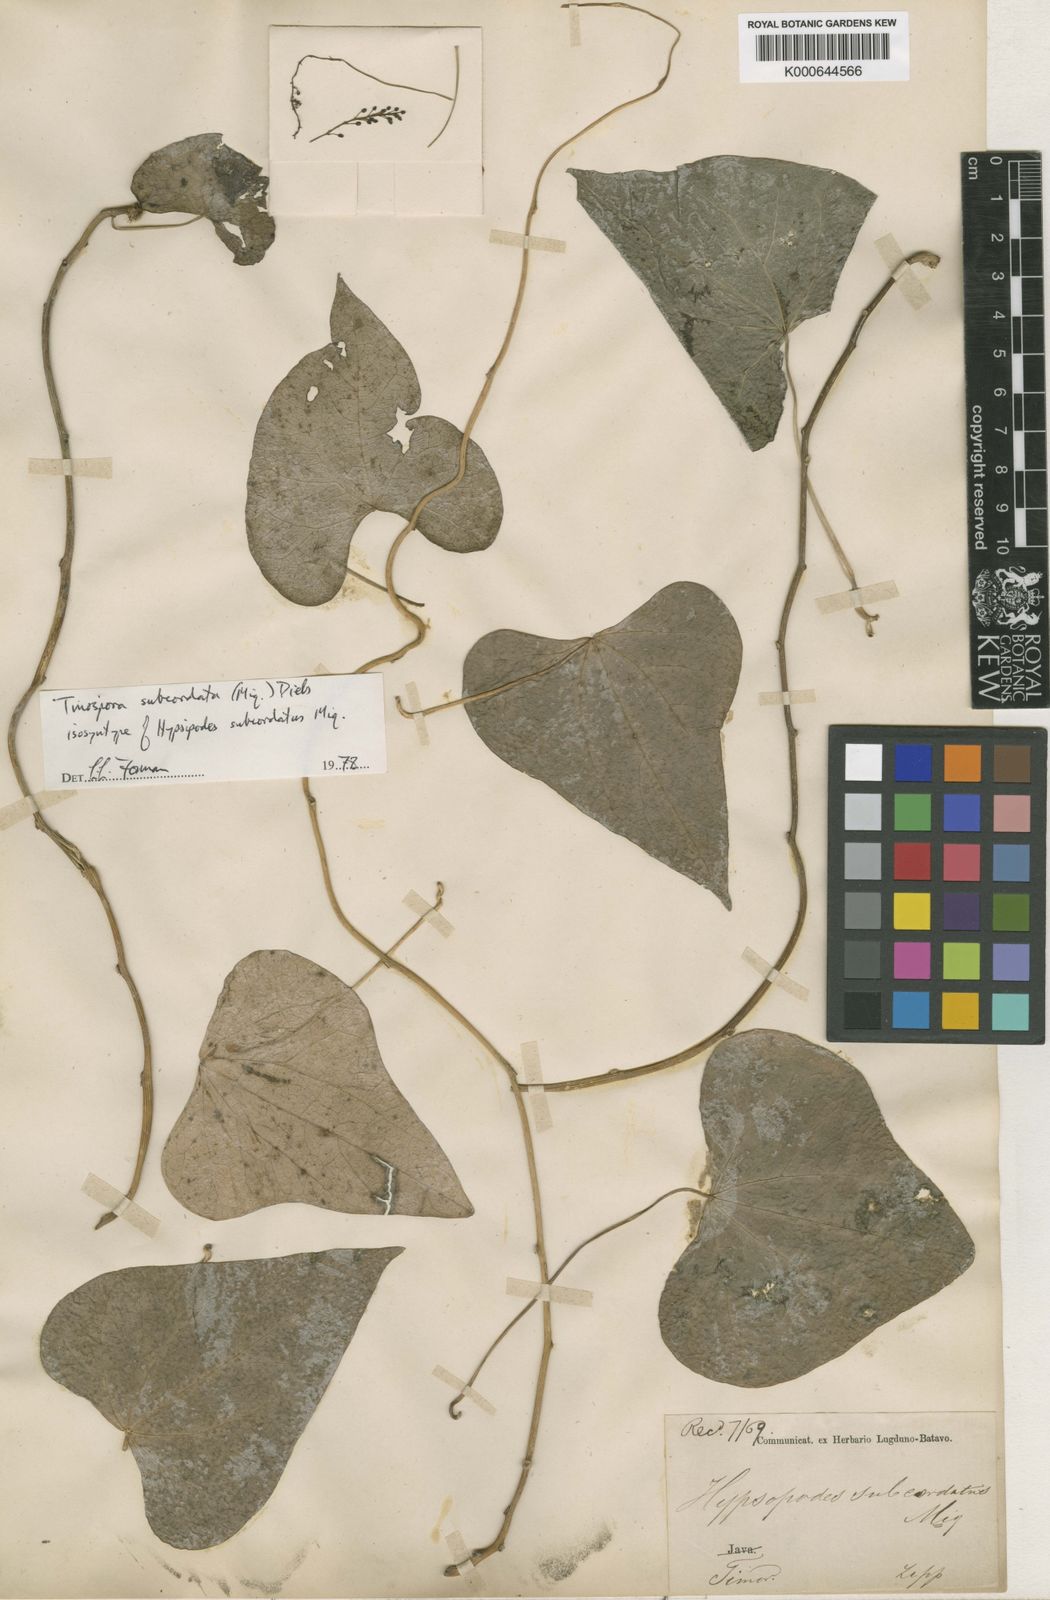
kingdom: Plantae
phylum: Tracheophyta
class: Magnoliopsida
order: Ranunculales
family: Menispermaceae
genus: Tinospora
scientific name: Tinospora subcordata
